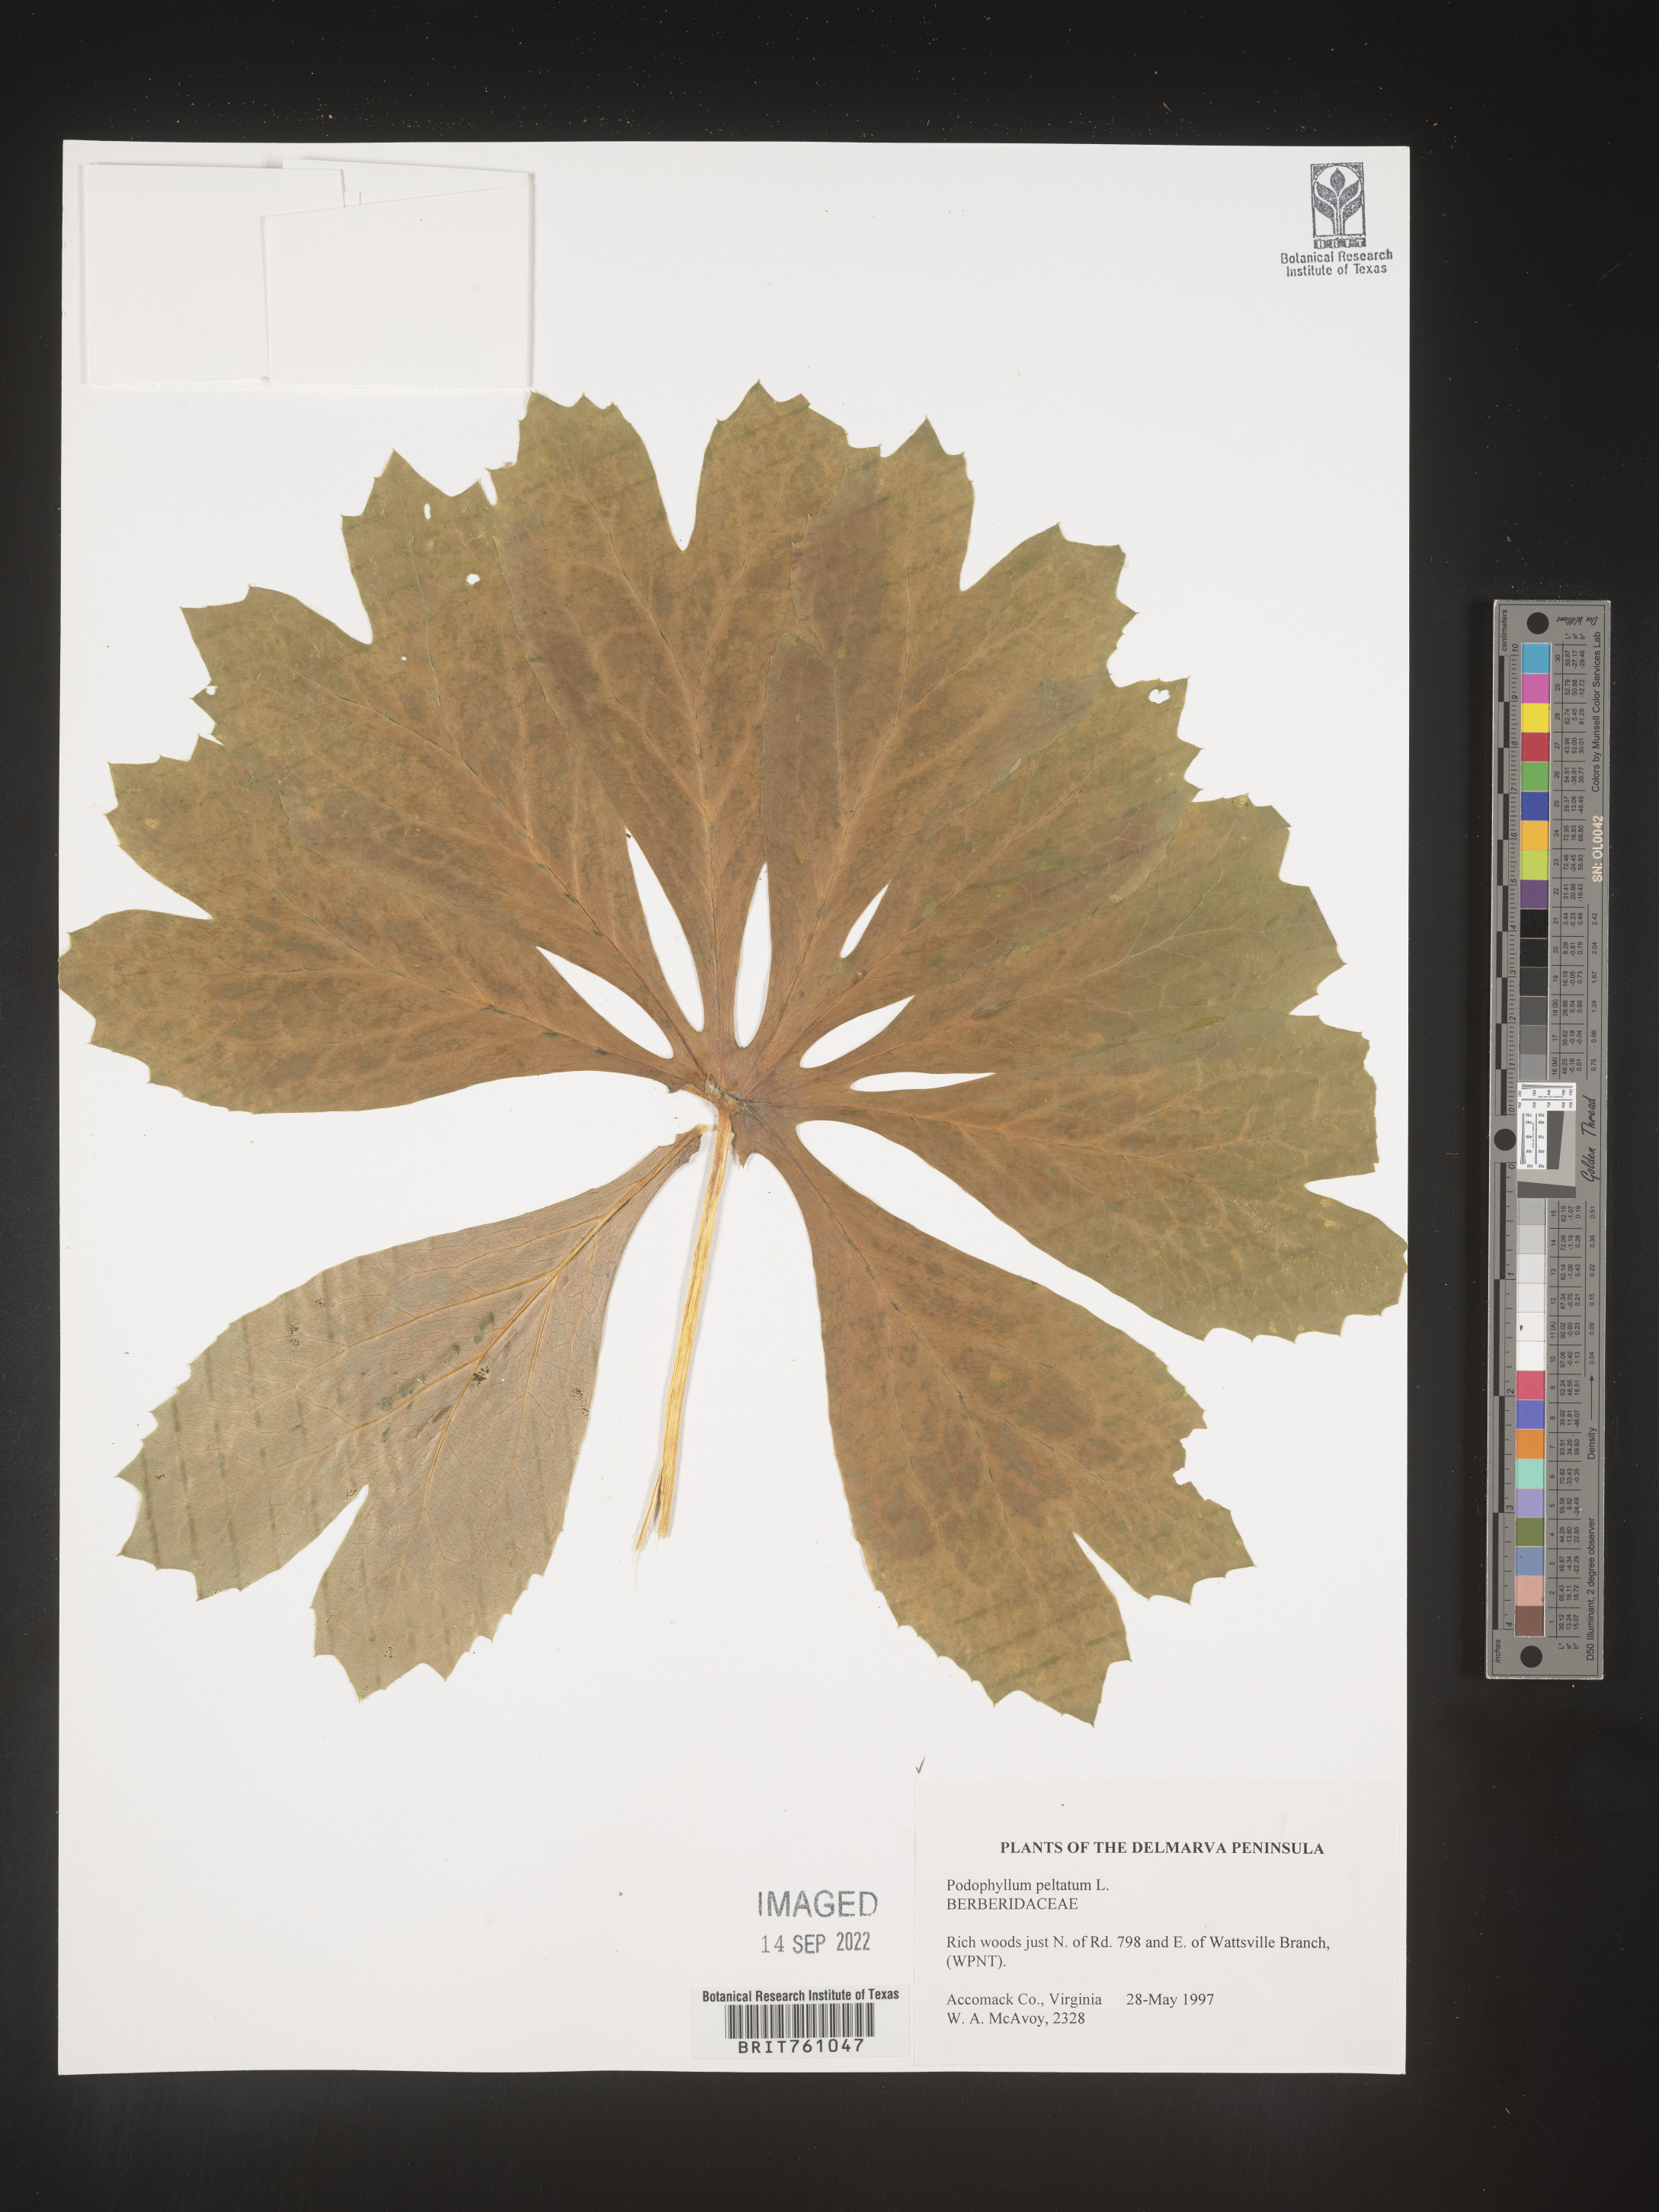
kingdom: Plantae
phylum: Tracheophyta
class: Magnoliopsida
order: Ranunculales
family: Berberidaceae
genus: Podophyllum
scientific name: Podophyllum peltatum
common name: Wild mandrake
